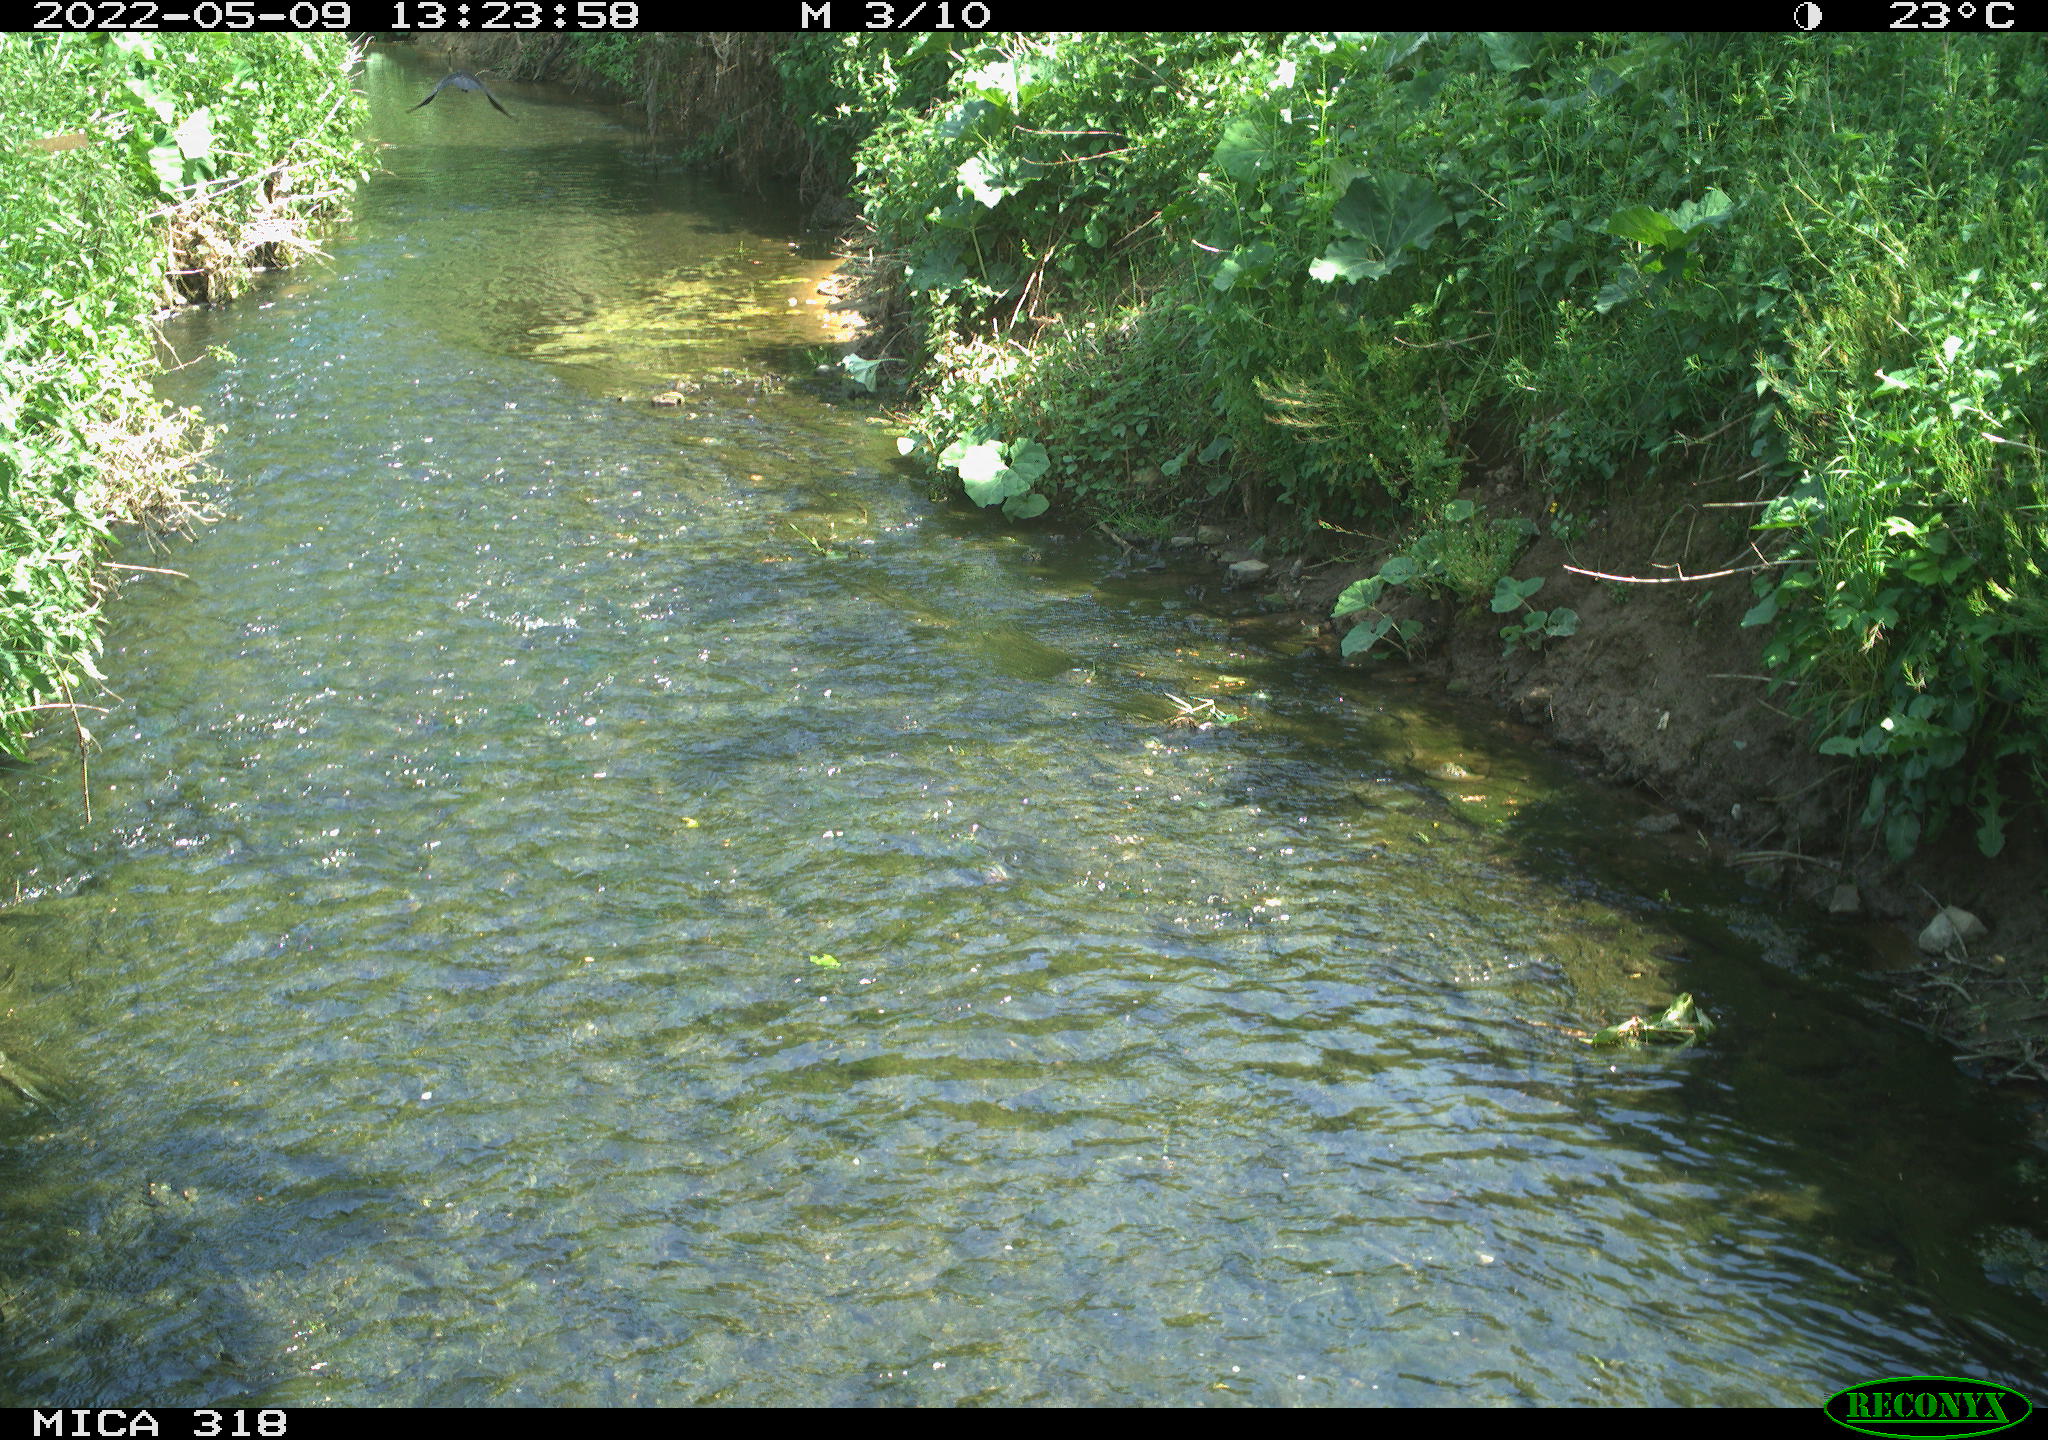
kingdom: Animalia
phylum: Chordata
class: Aves
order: Passeriformes
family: Corvidae
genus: Corvus
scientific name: Corvus corone
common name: Carrion crow
